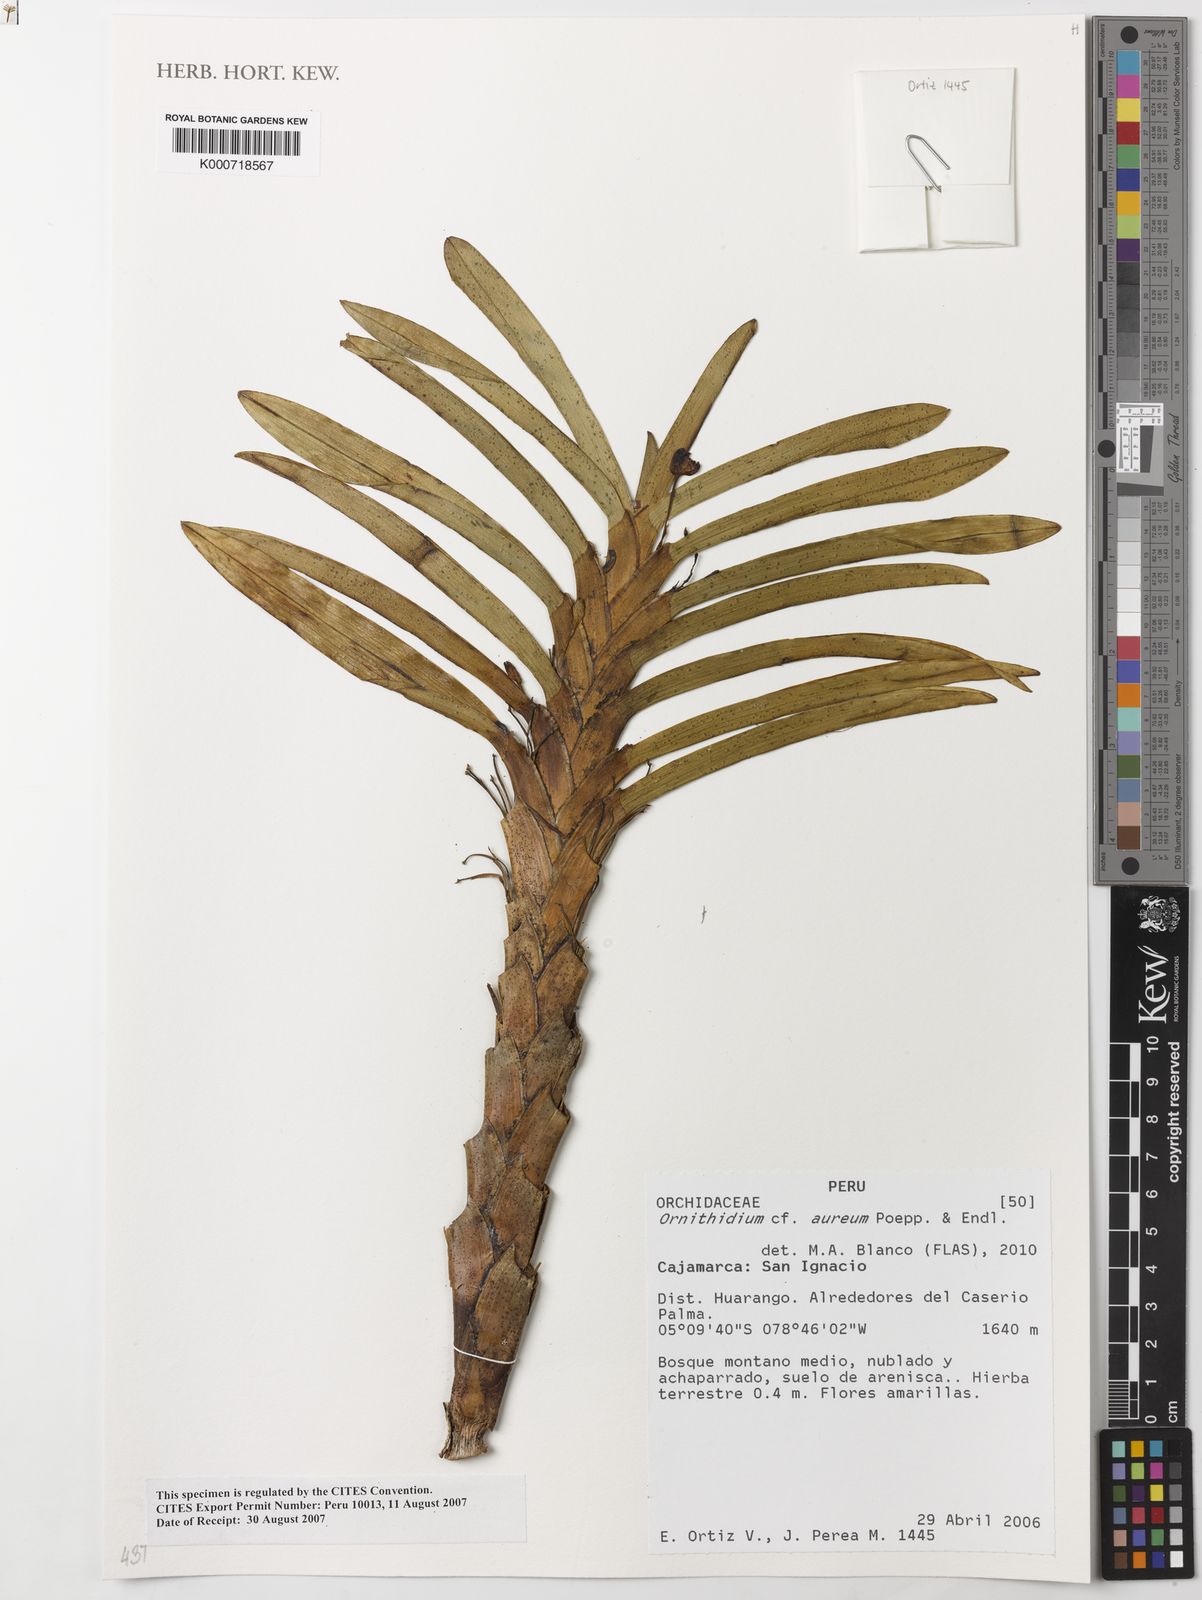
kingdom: Plantae
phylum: Tracheophyta
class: Liliopsida
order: Asparagales
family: Orchidaceae
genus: Maxillaria
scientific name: Maxillaria aurea
